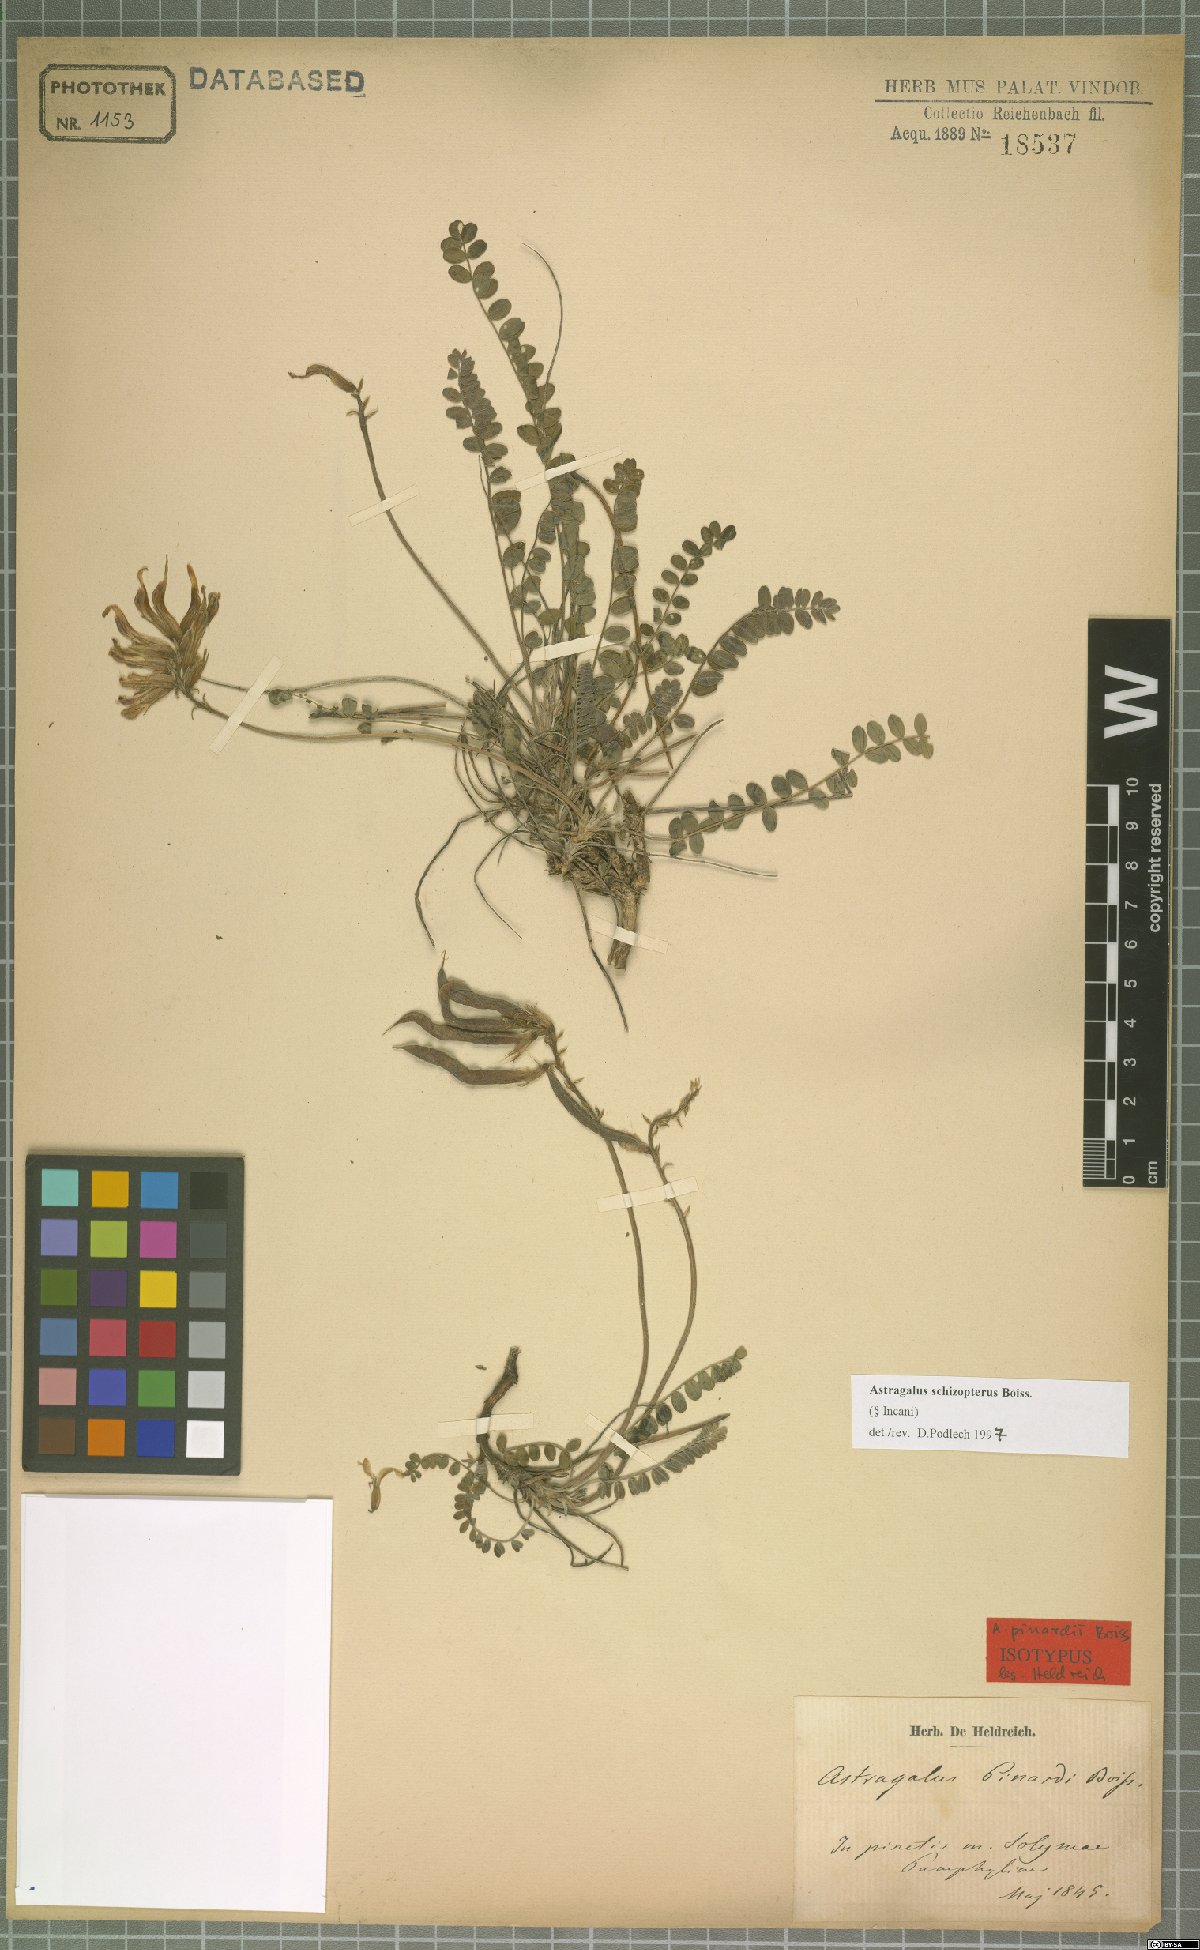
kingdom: Plantae
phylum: Tracheophyta
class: Magnoliopsida
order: Fabales
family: Fabaceae
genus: Astragalus
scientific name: Astragalus schizopterus
